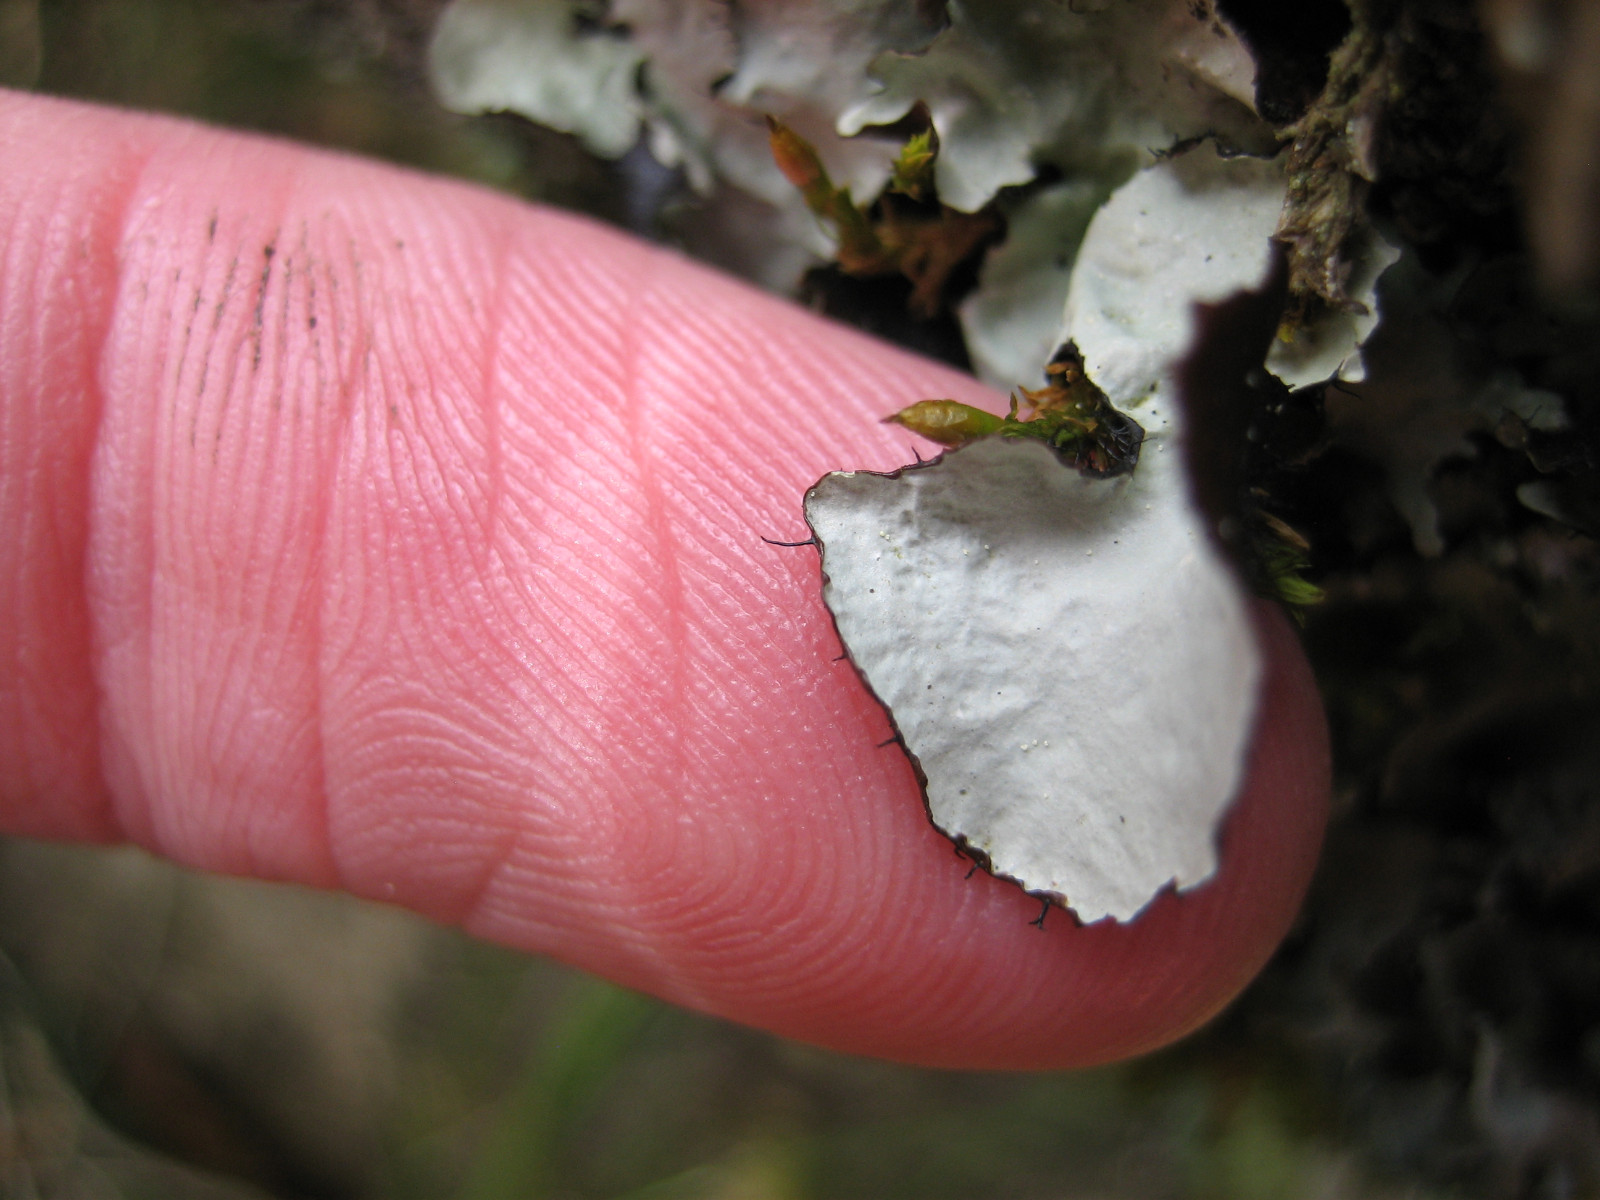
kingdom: Fungi
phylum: Ascomycota
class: Lecanoromycetes
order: Lecanorales
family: Parmeliaceae
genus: Parmotrema
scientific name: Parmotrema perlatum
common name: trådet skållav
